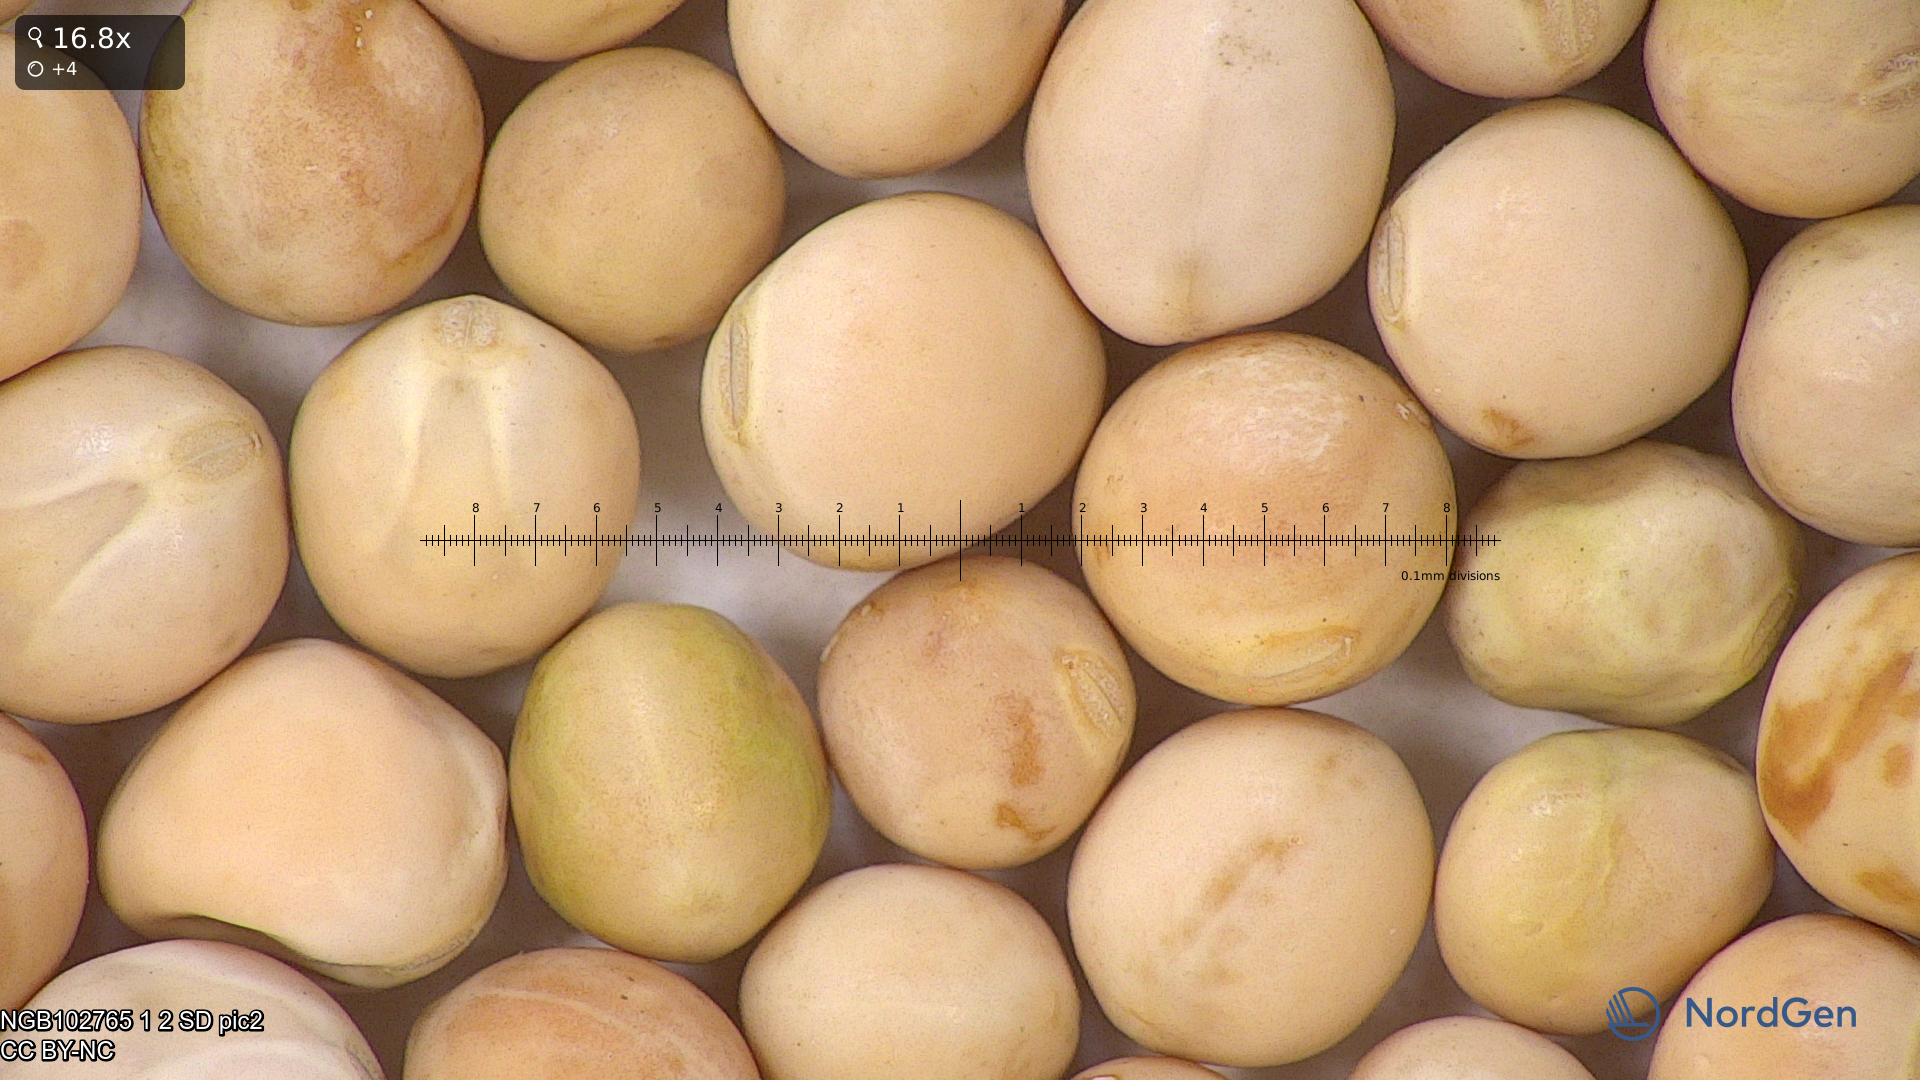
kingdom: Plantae
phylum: Tracheophyta
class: Magnoliopsida
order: Fabales
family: Fabaceae
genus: Lathyrus
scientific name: Lathyrus oleraceus
